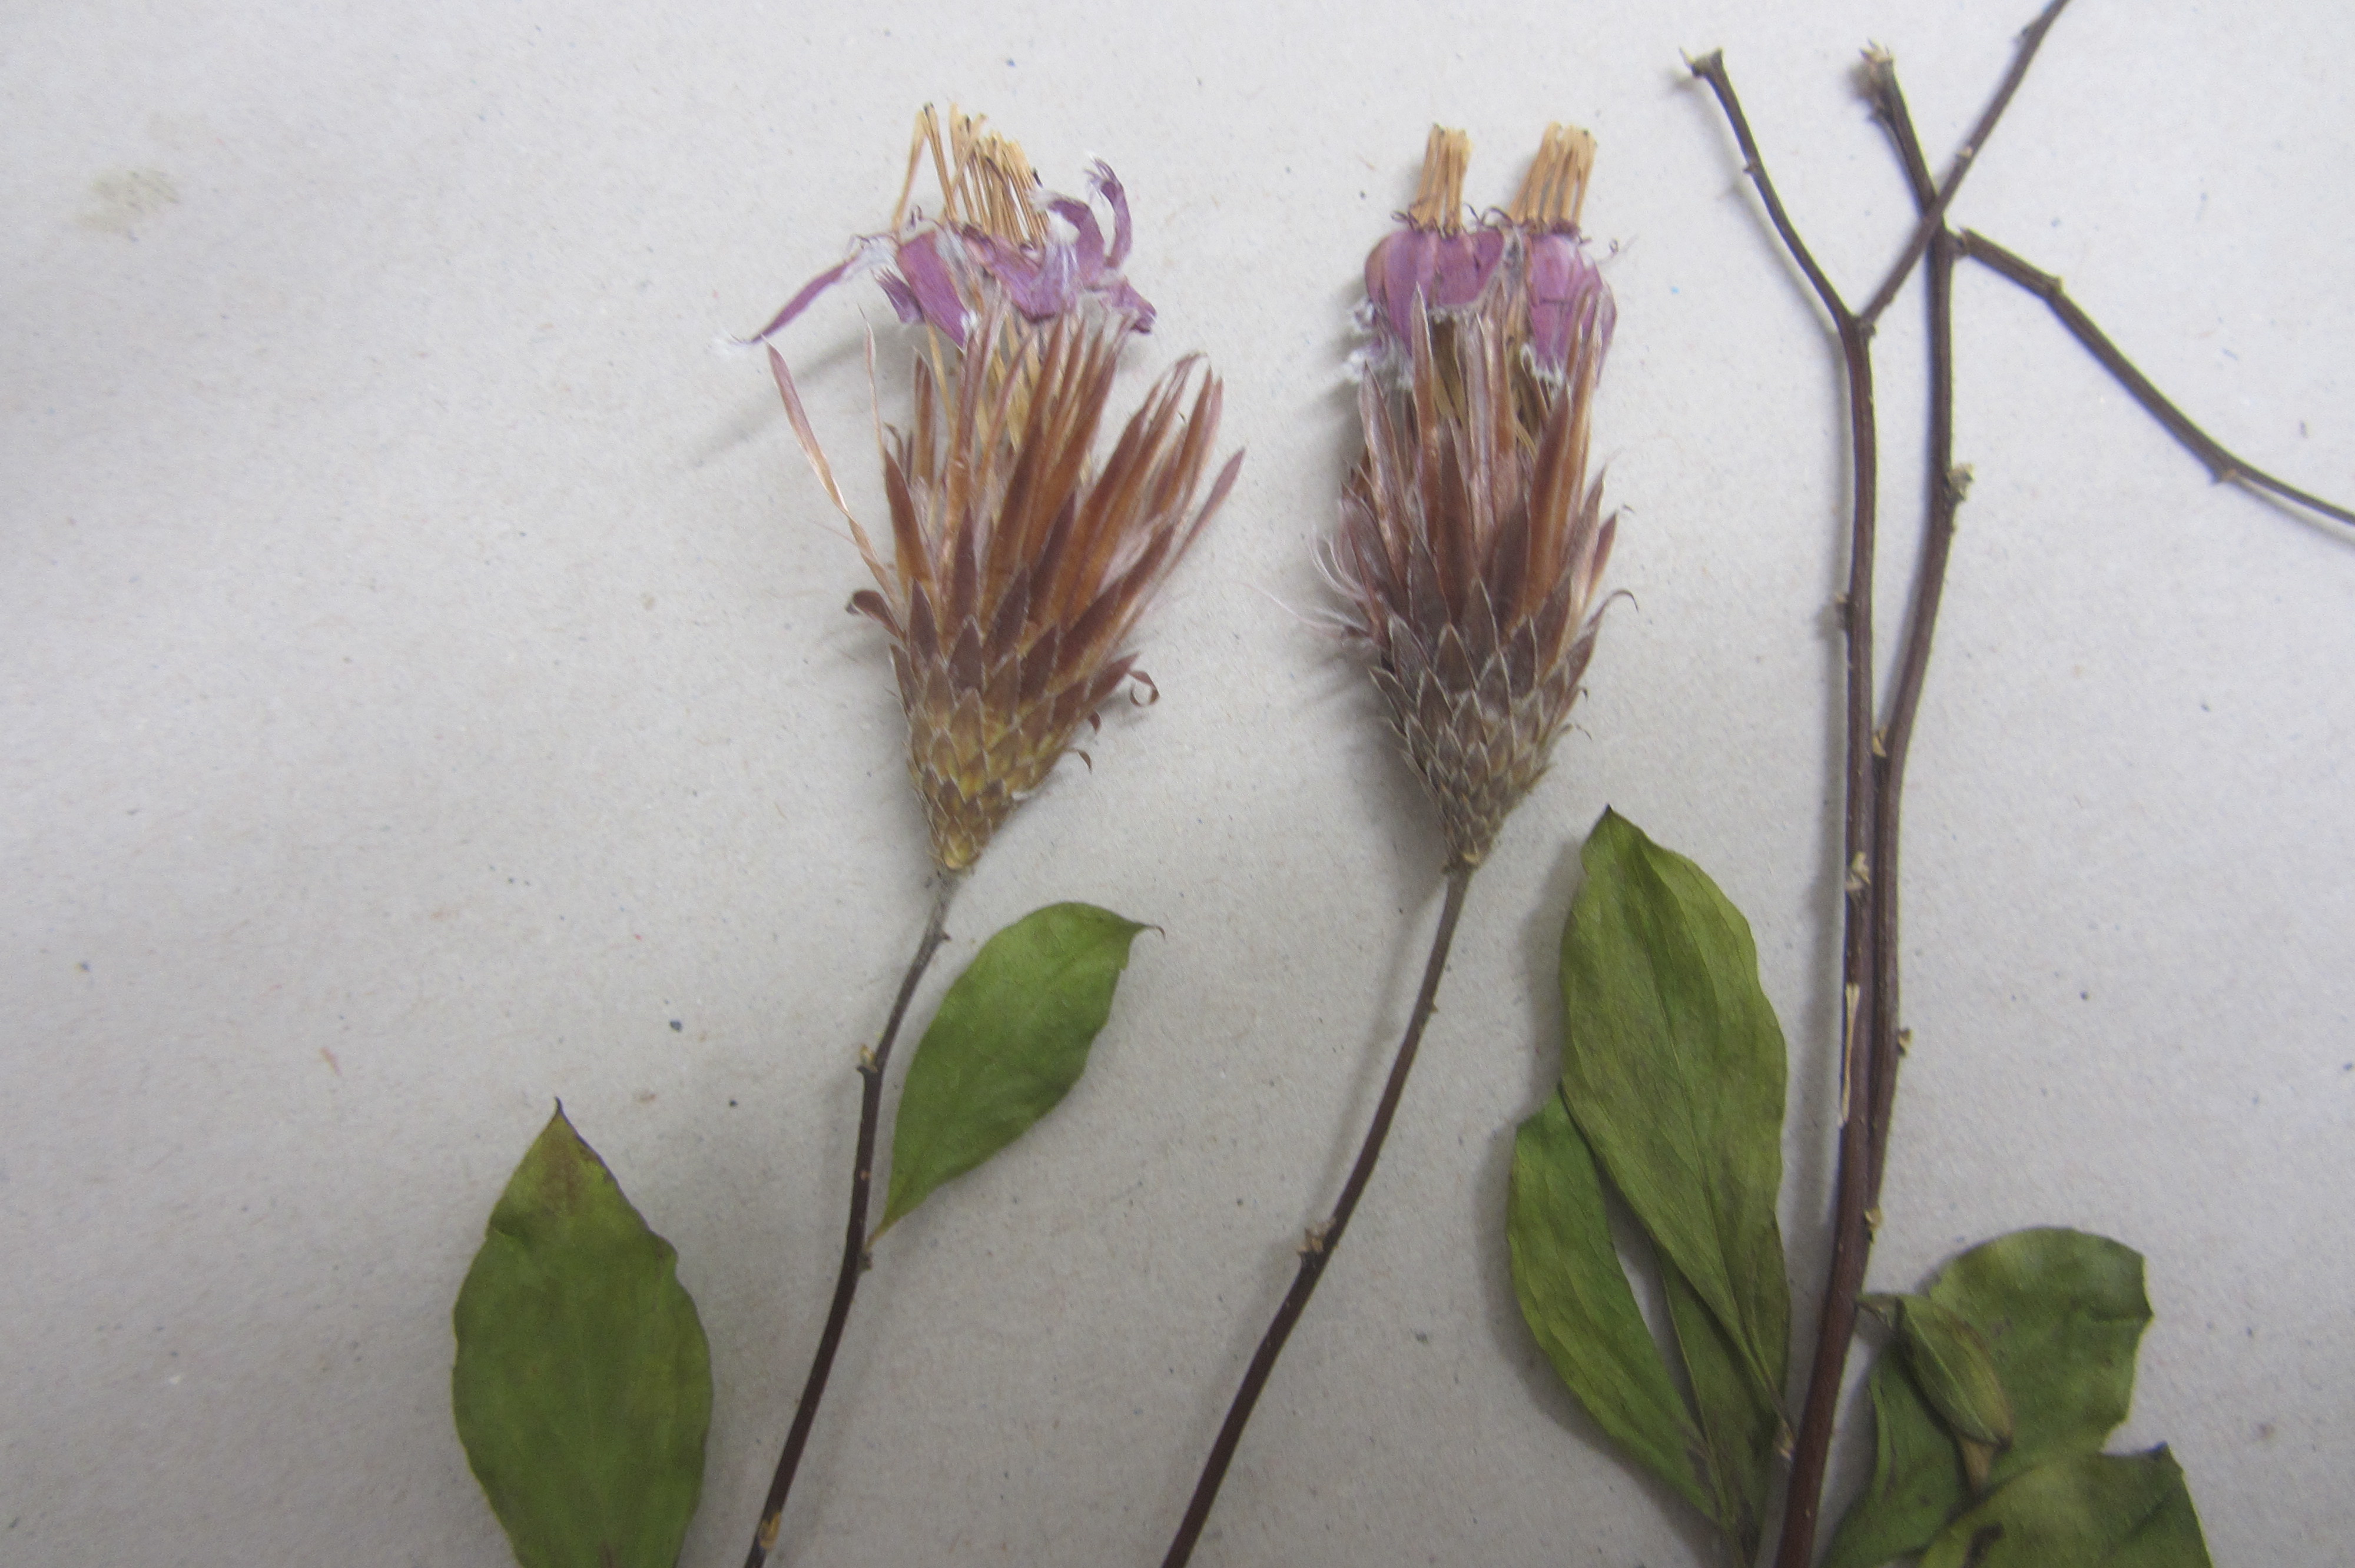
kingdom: Plantae
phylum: Tracheophyta
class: Magnoliopsida
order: Asterales
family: Asteraceae
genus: Barnadesia
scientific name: Barnadesia arborea
